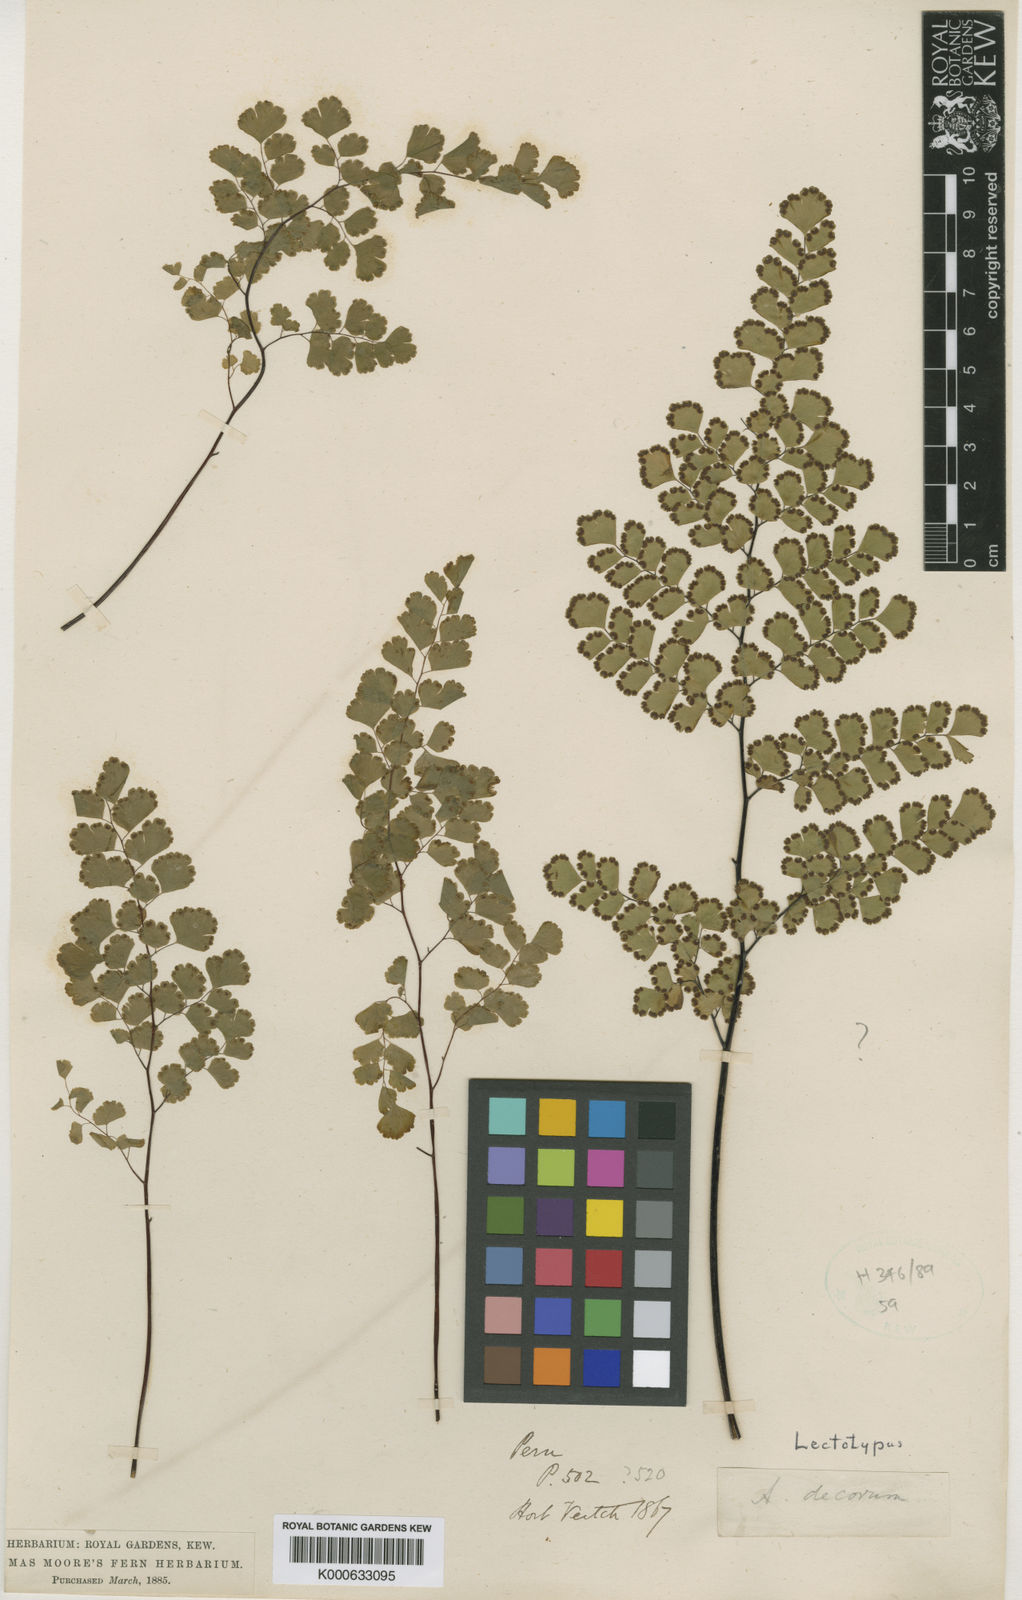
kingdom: Plantae
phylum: Tracheophyta
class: Polypodiopsida
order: Polypodiales
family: Pteridaceae
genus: Adiantum
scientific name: Adiantum raddianum
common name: Delta maidenhair fern
